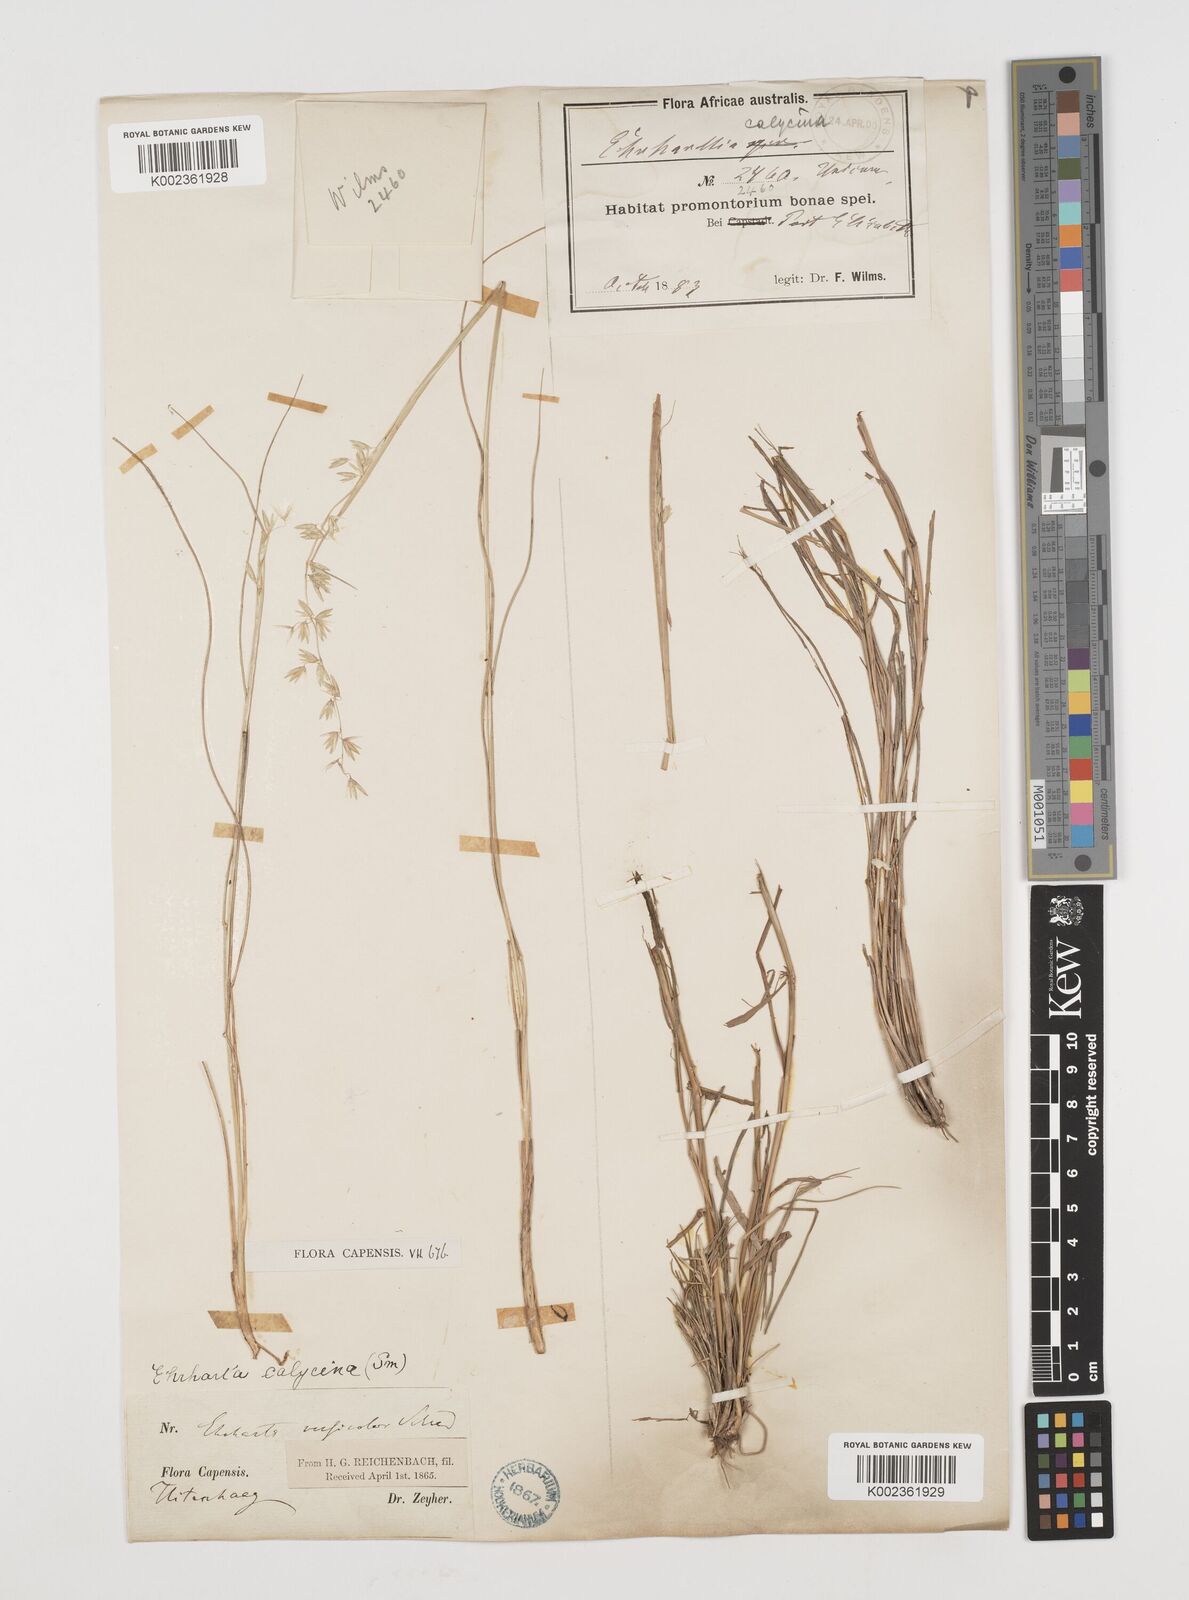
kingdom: Plantae
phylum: Tracheophyta
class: Liliopsida
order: Poales
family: Poaceae
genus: Ehrharta
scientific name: Ehrharta calycina
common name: Perennial veldtgrass
